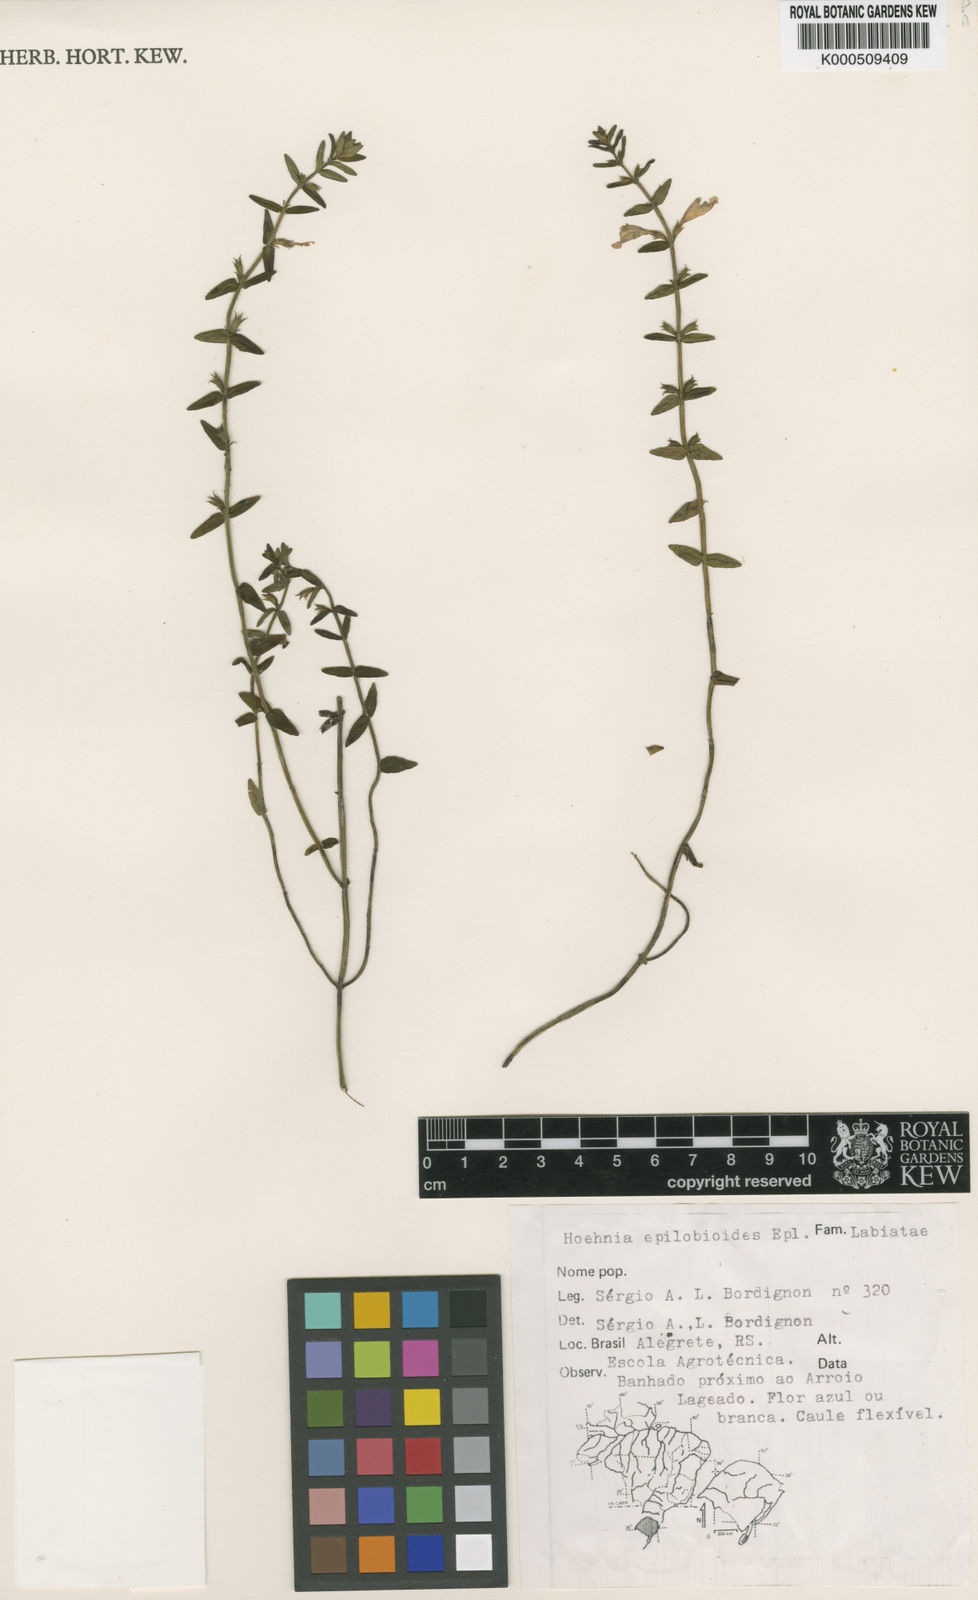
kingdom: Plantae
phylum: Tracheophyta
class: Magnoliopsida
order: Lamiales
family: Lamiaceae
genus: Hoehnea
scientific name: Hoehnea epilobioides
